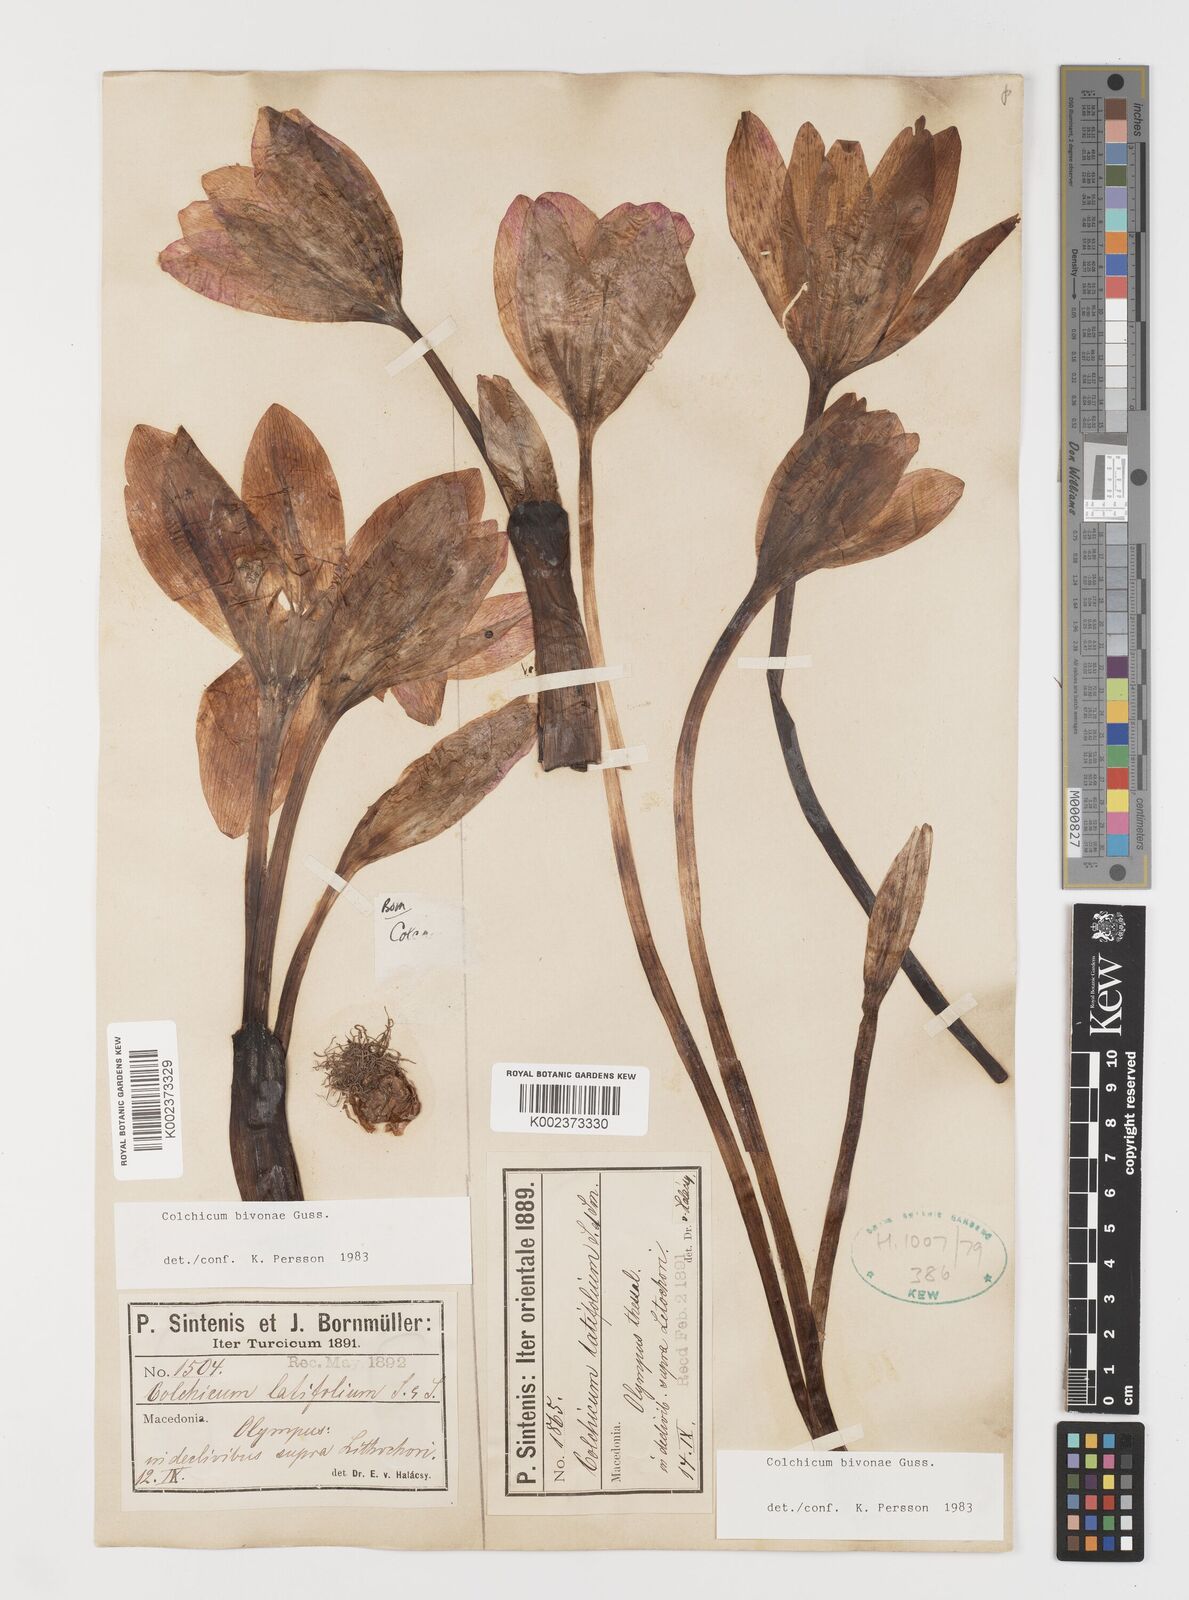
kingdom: Plantae
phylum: Tracheophyta
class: Liliopsida
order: Liliales
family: Colchicaceae
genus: Colchicum
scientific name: Colchicum bivonae
